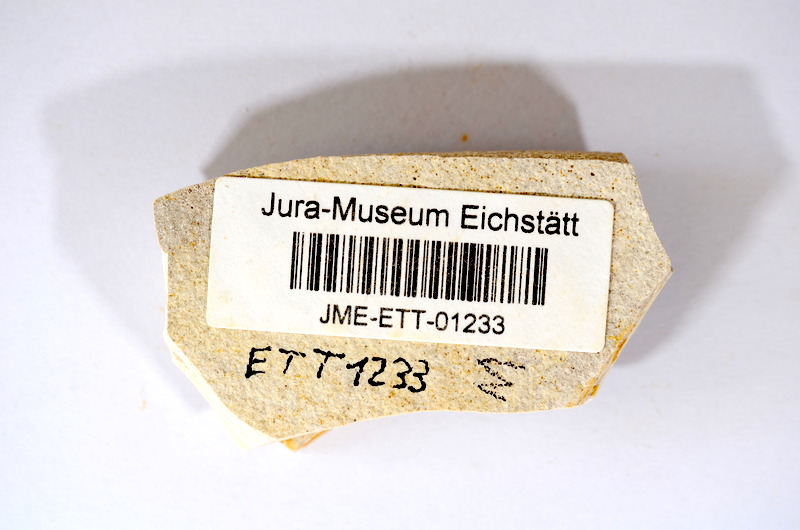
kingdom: Animalia
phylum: Chordata
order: Salmoniformes
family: Orthogonikleithridae
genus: Orthogonikleithrus
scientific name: Orthogonikleithrus hoelli
